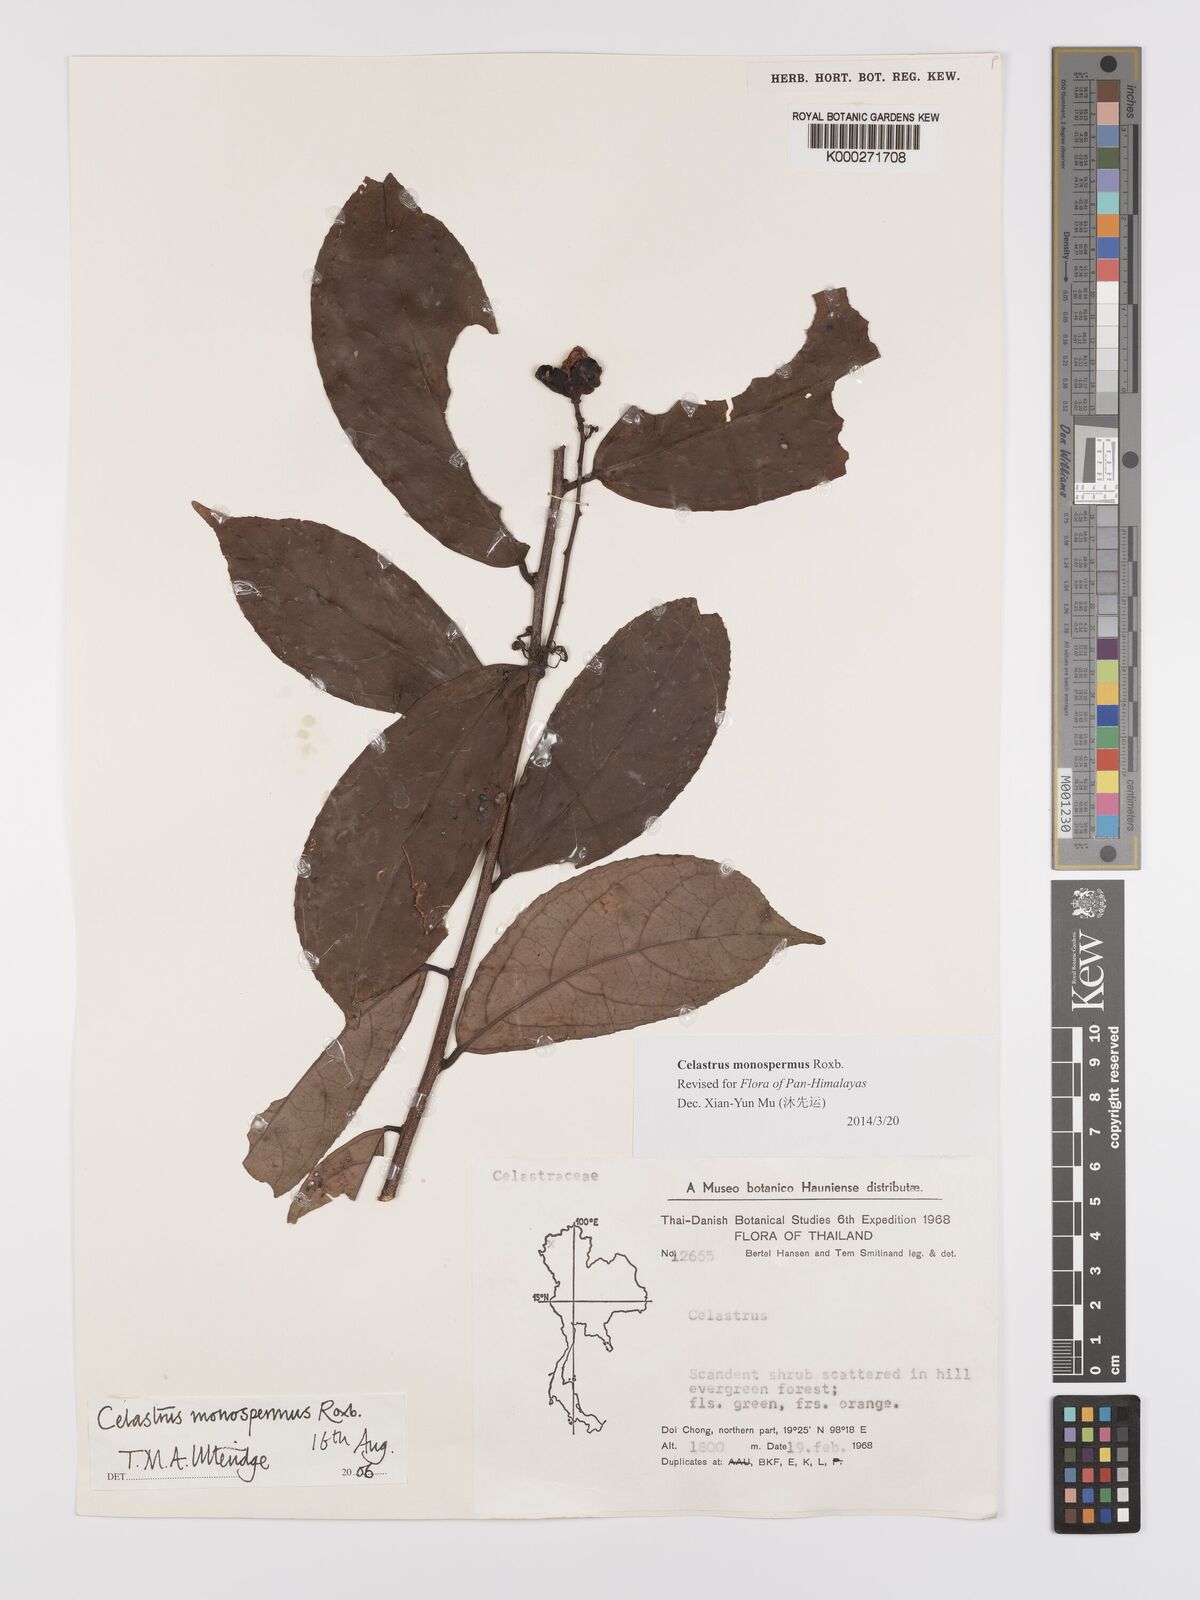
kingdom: Plantae
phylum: Tracheophyta
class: Magnoliopsida
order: Celastrales
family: Celastraceae
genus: Celastrus
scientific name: Celastrus monospermus
